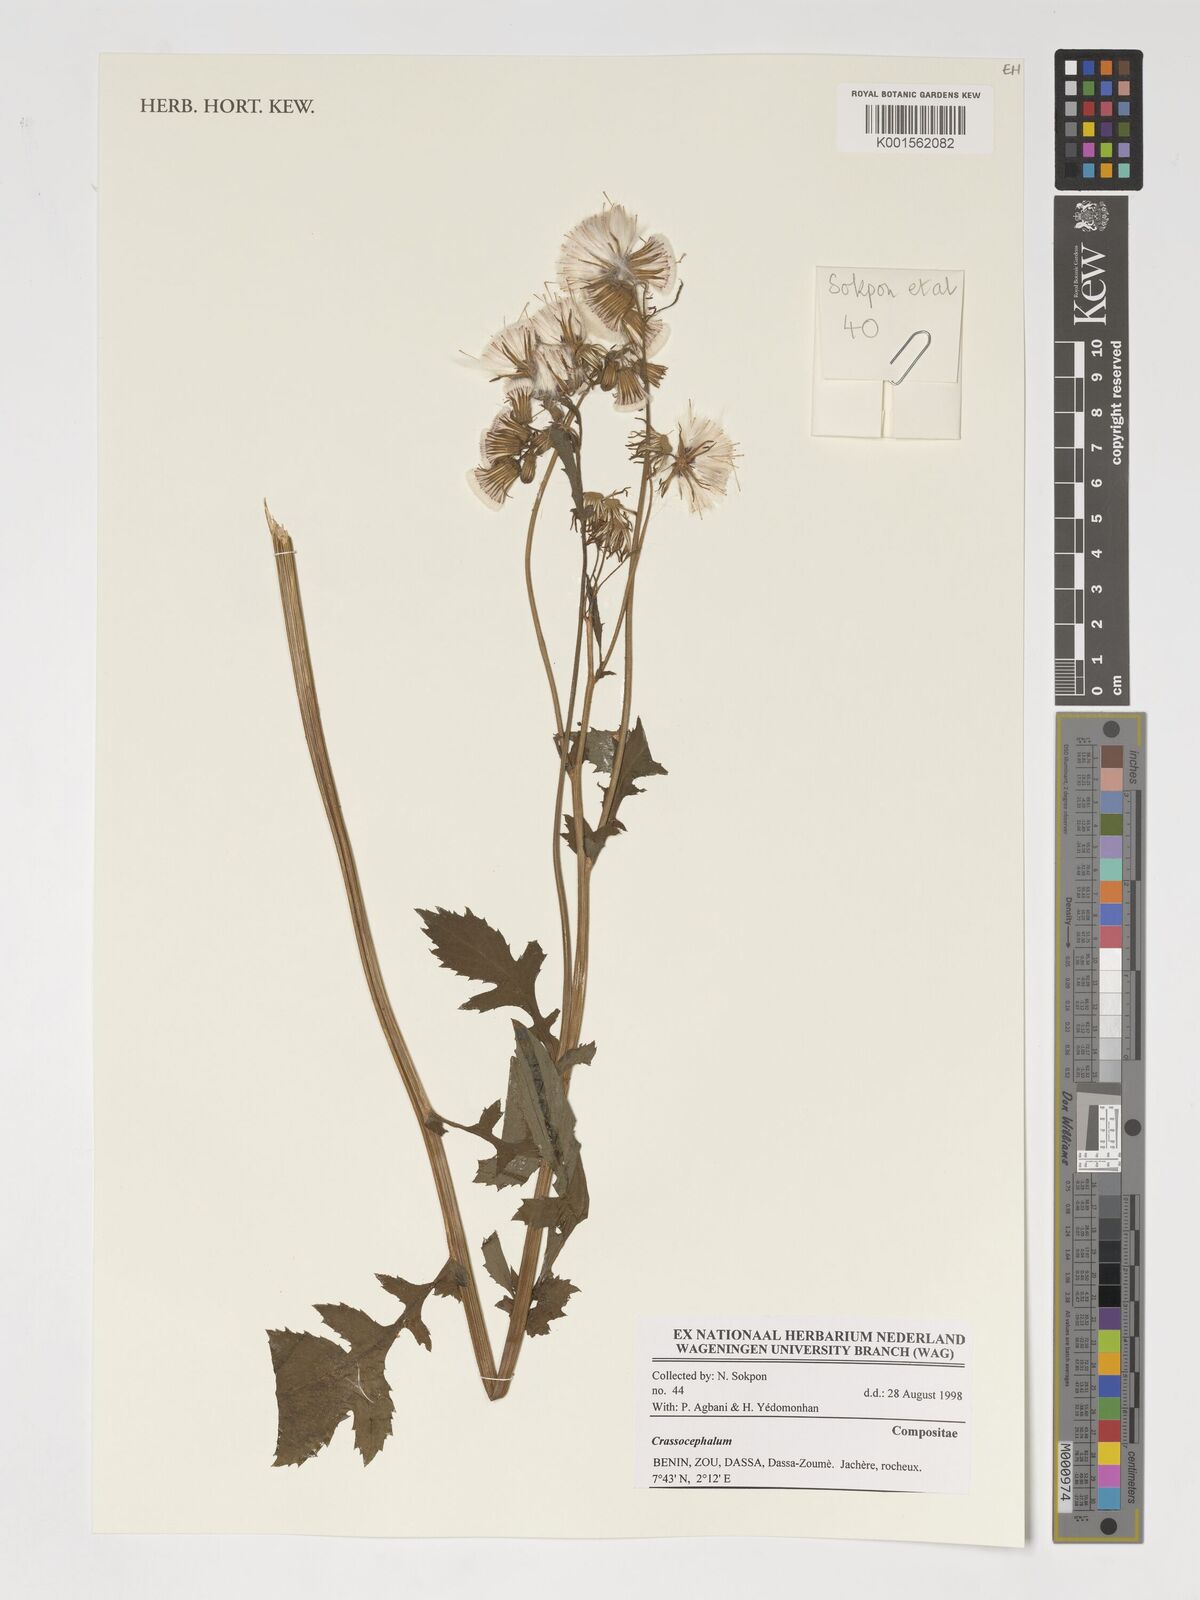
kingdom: Plantae
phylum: Tracheophyta
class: Magnoliopsida
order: Asterales
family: Asteraceae
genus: Crassocephalum
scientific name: Crassocephalum
